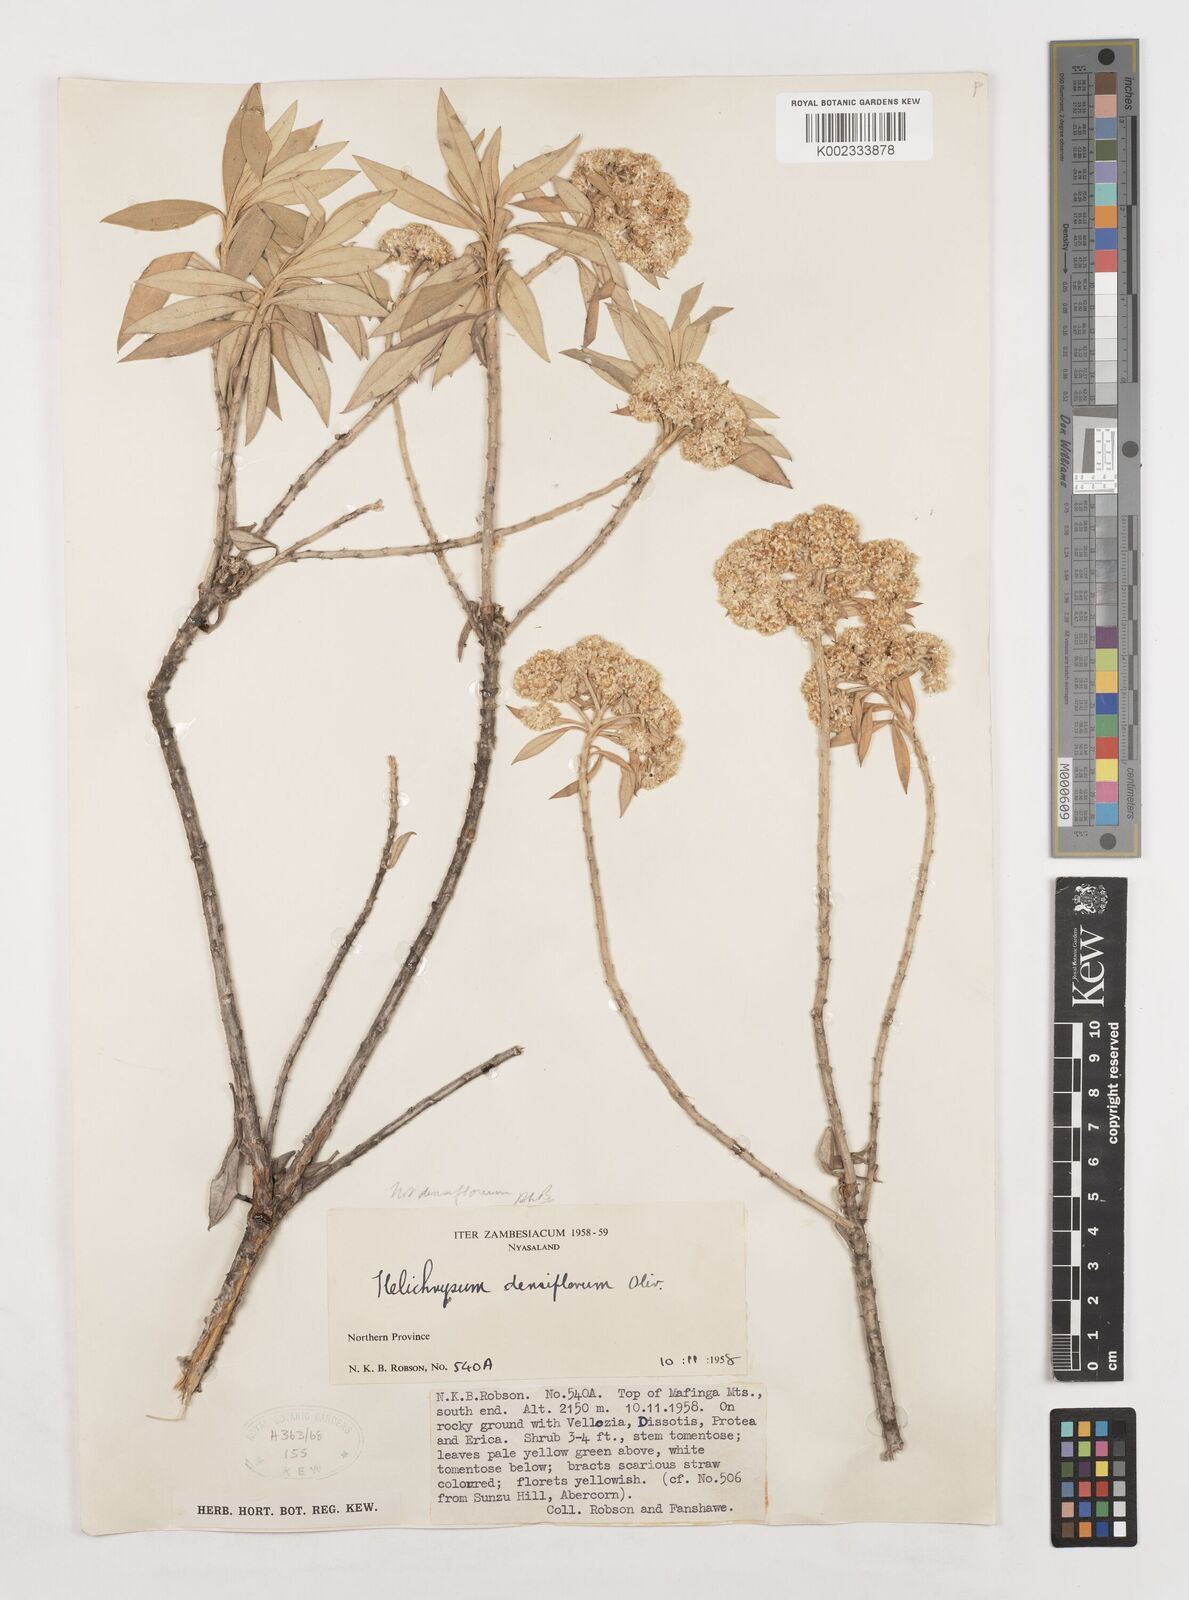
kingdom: Plantae
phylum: Tracheophyta
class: Magnoliopsida
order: Asterales
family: Asteraceae
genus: Helichrysum
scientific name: Helichrysum densiflorum
